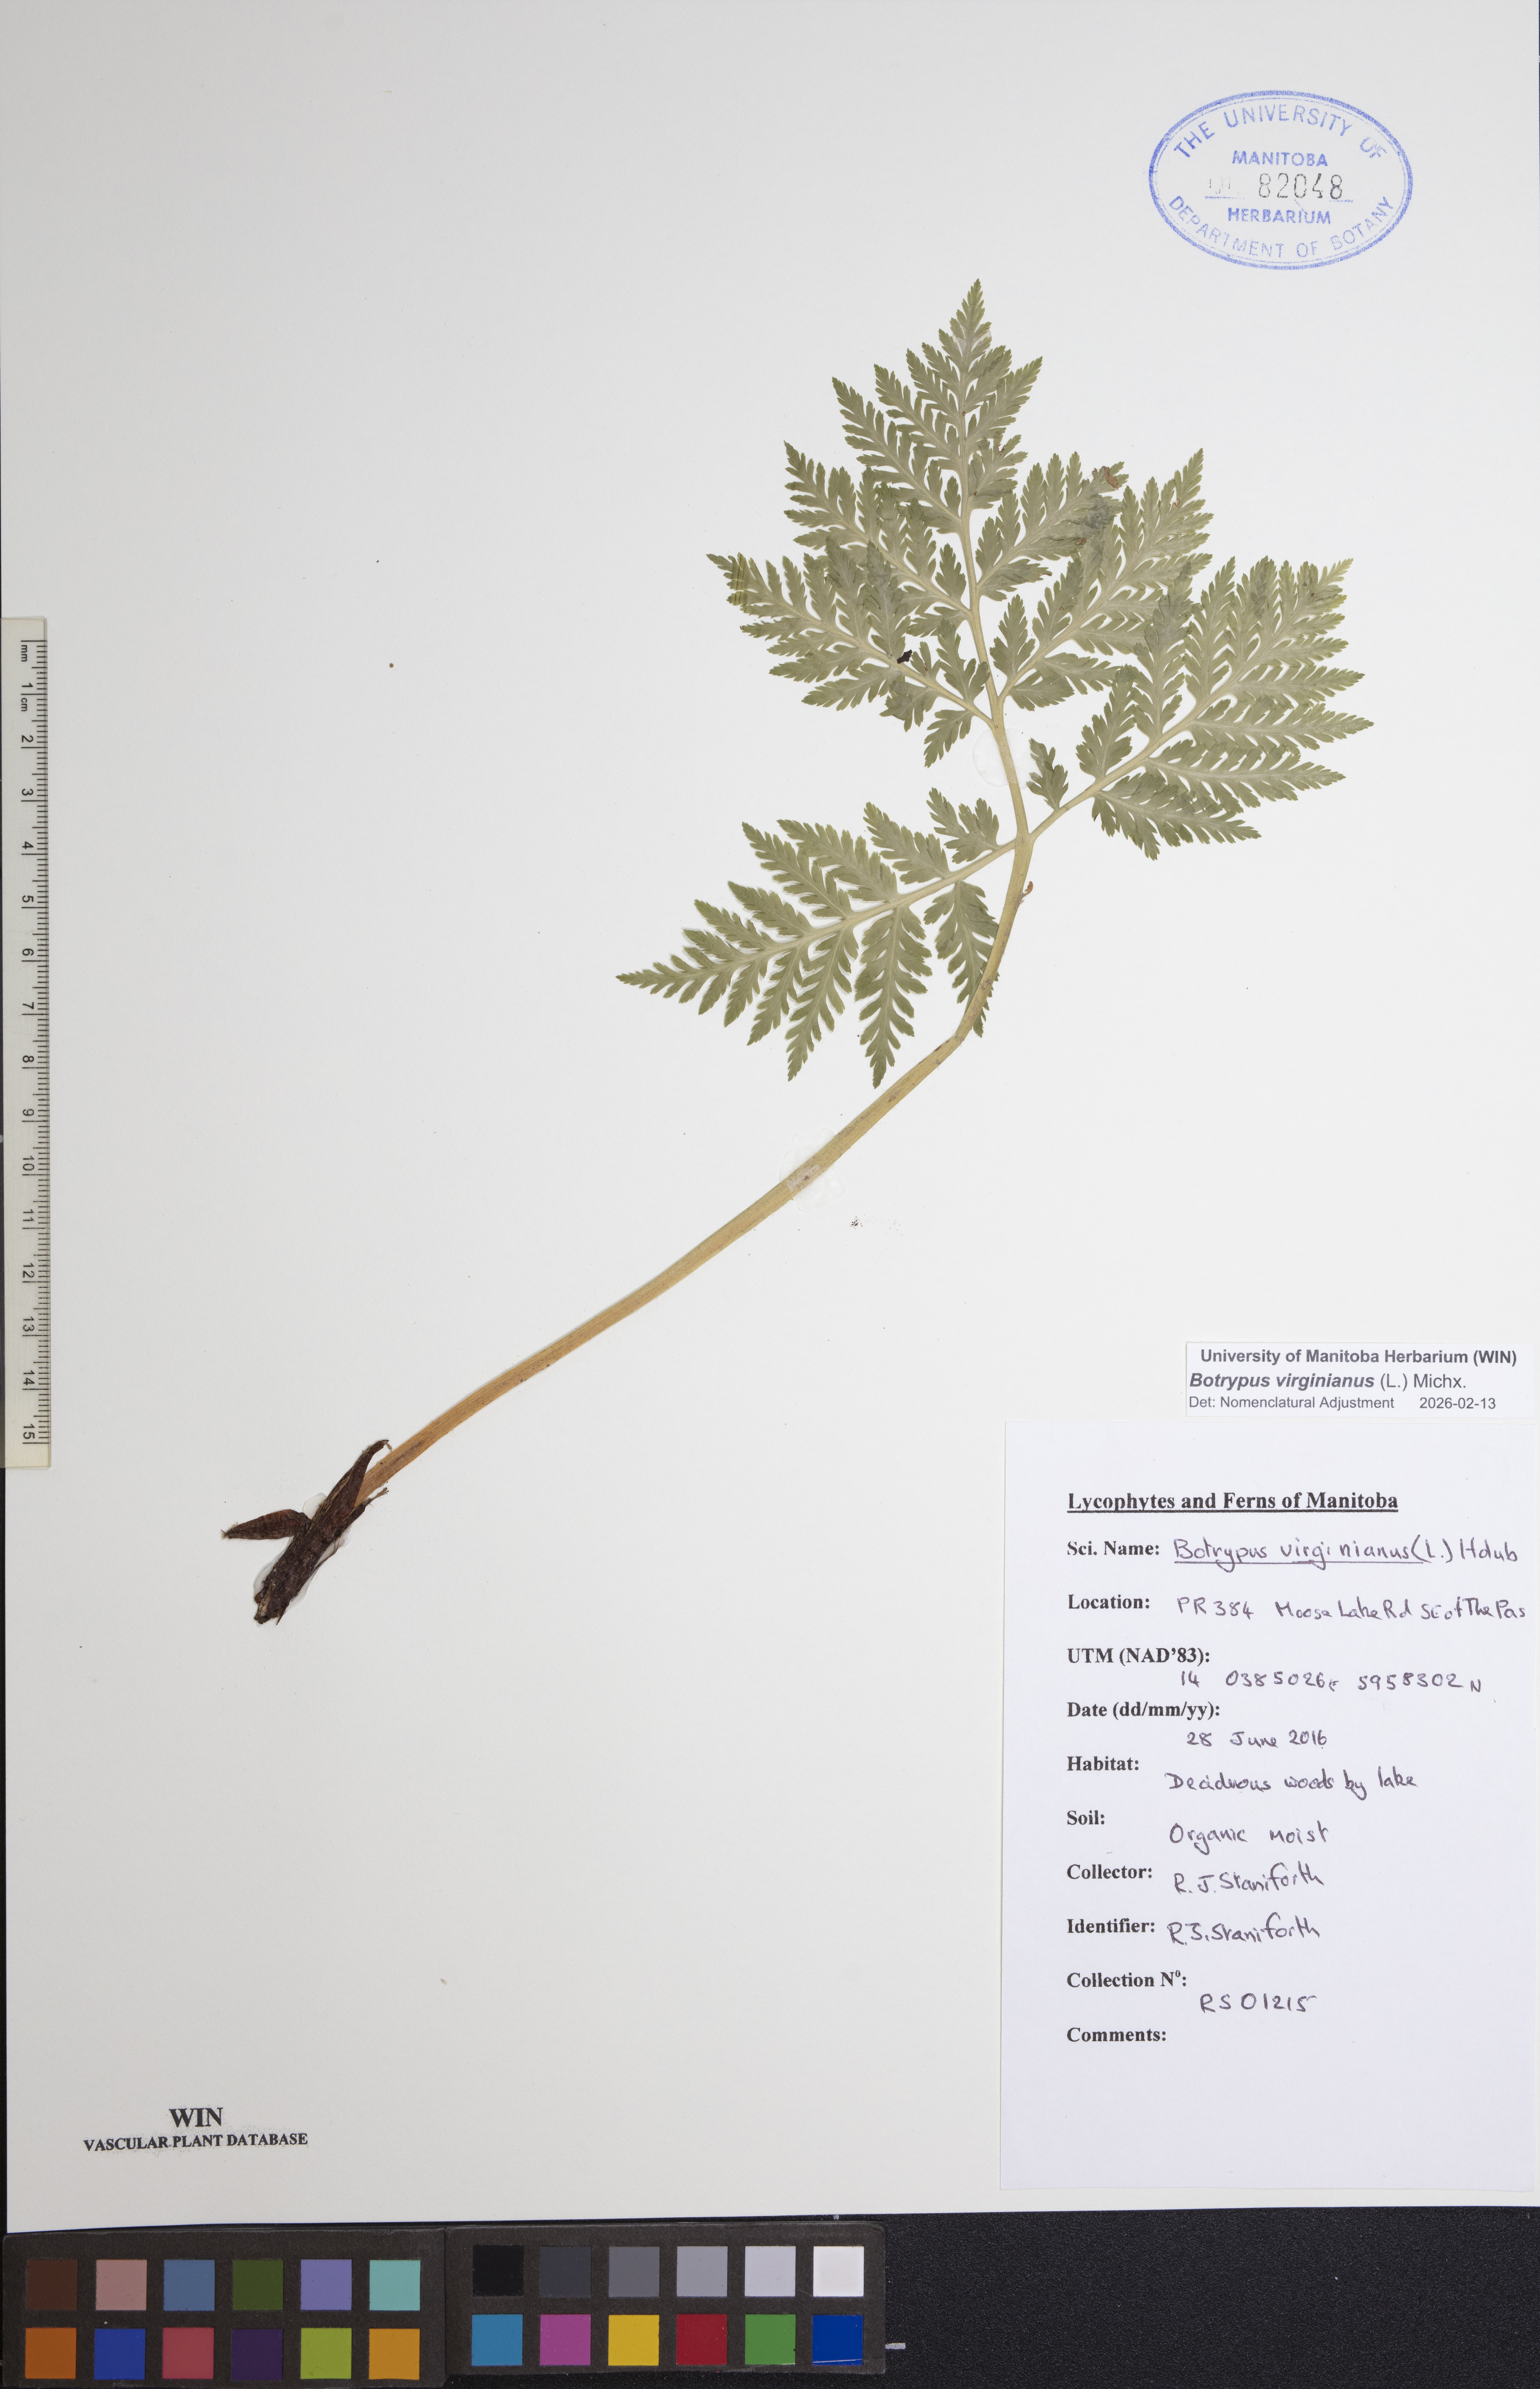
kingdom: Plantae
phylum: Tracheophyta
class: Polypodiopsida
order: Ophioglossales
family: Ophioglossaceae
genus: Botrypus
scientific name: Botrypus virginianus
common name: Common grapefern
